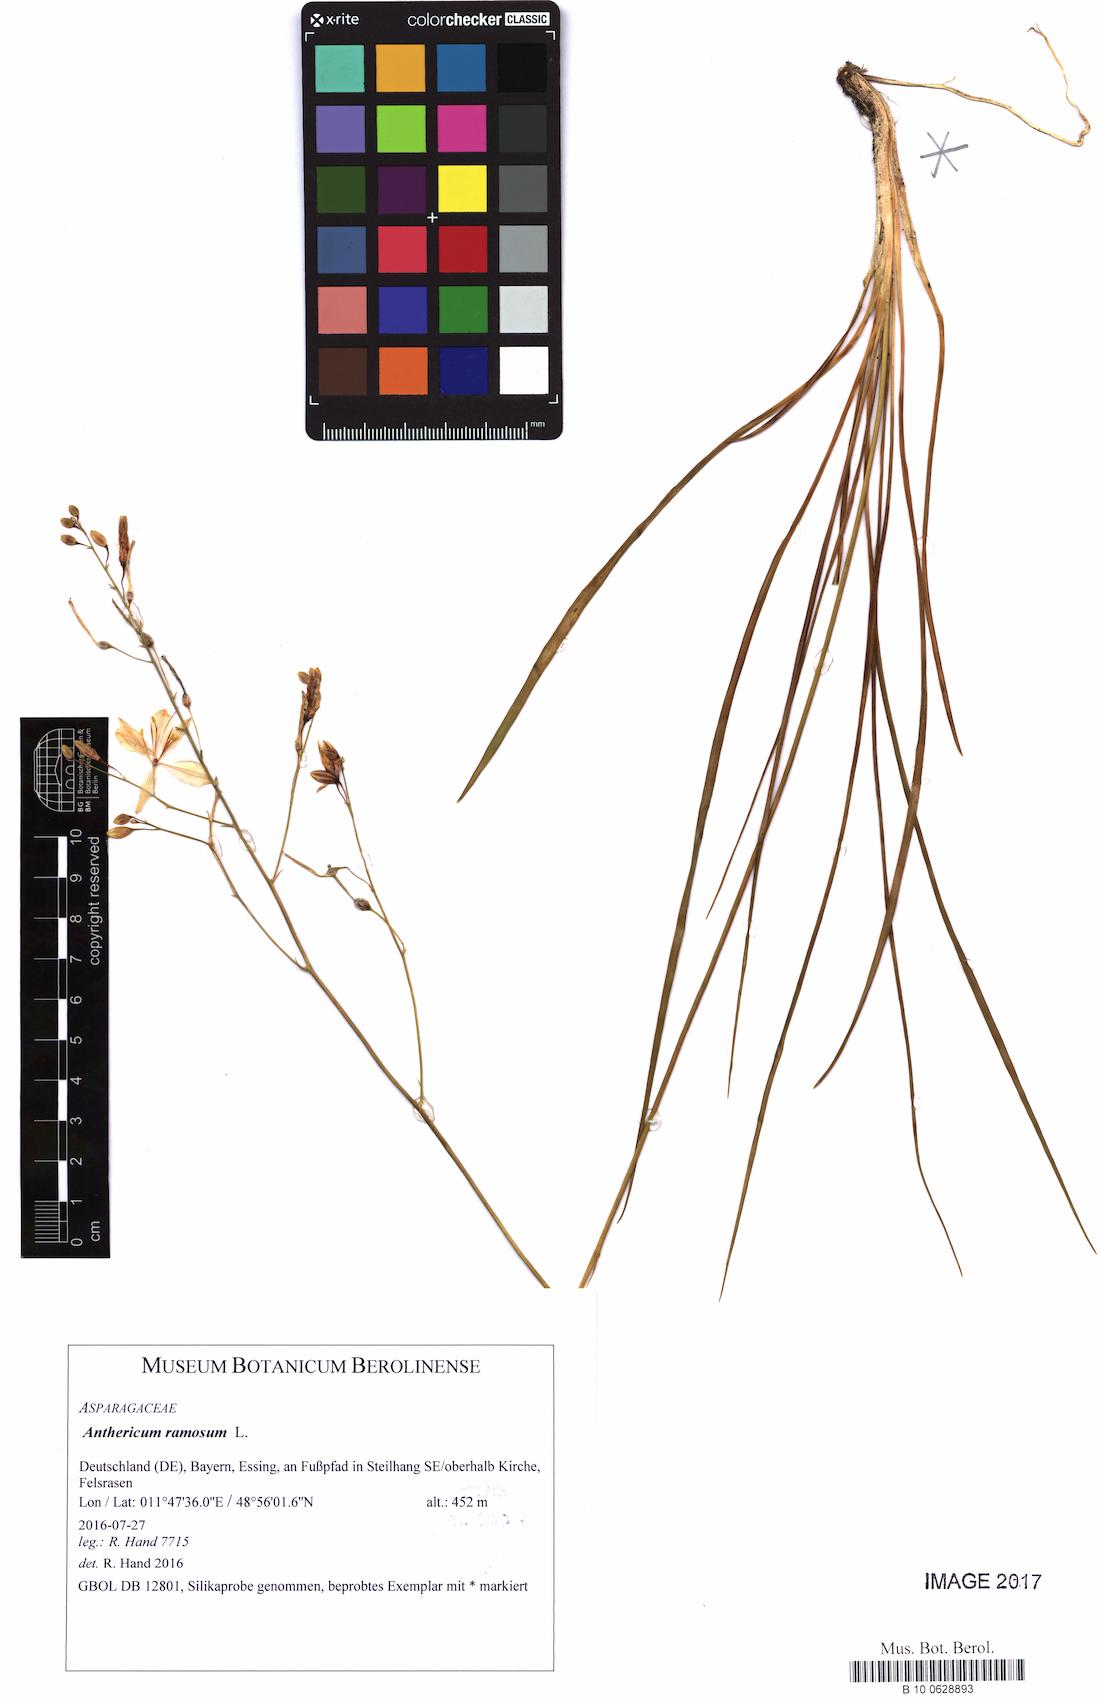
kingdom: Plantae
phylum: Tracheophyta
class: Liliopsida
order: Asparagales
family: Asparagaceae
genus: Anthericum
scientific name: Anthericum ramosum
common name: Branched st. bernard's-lily
